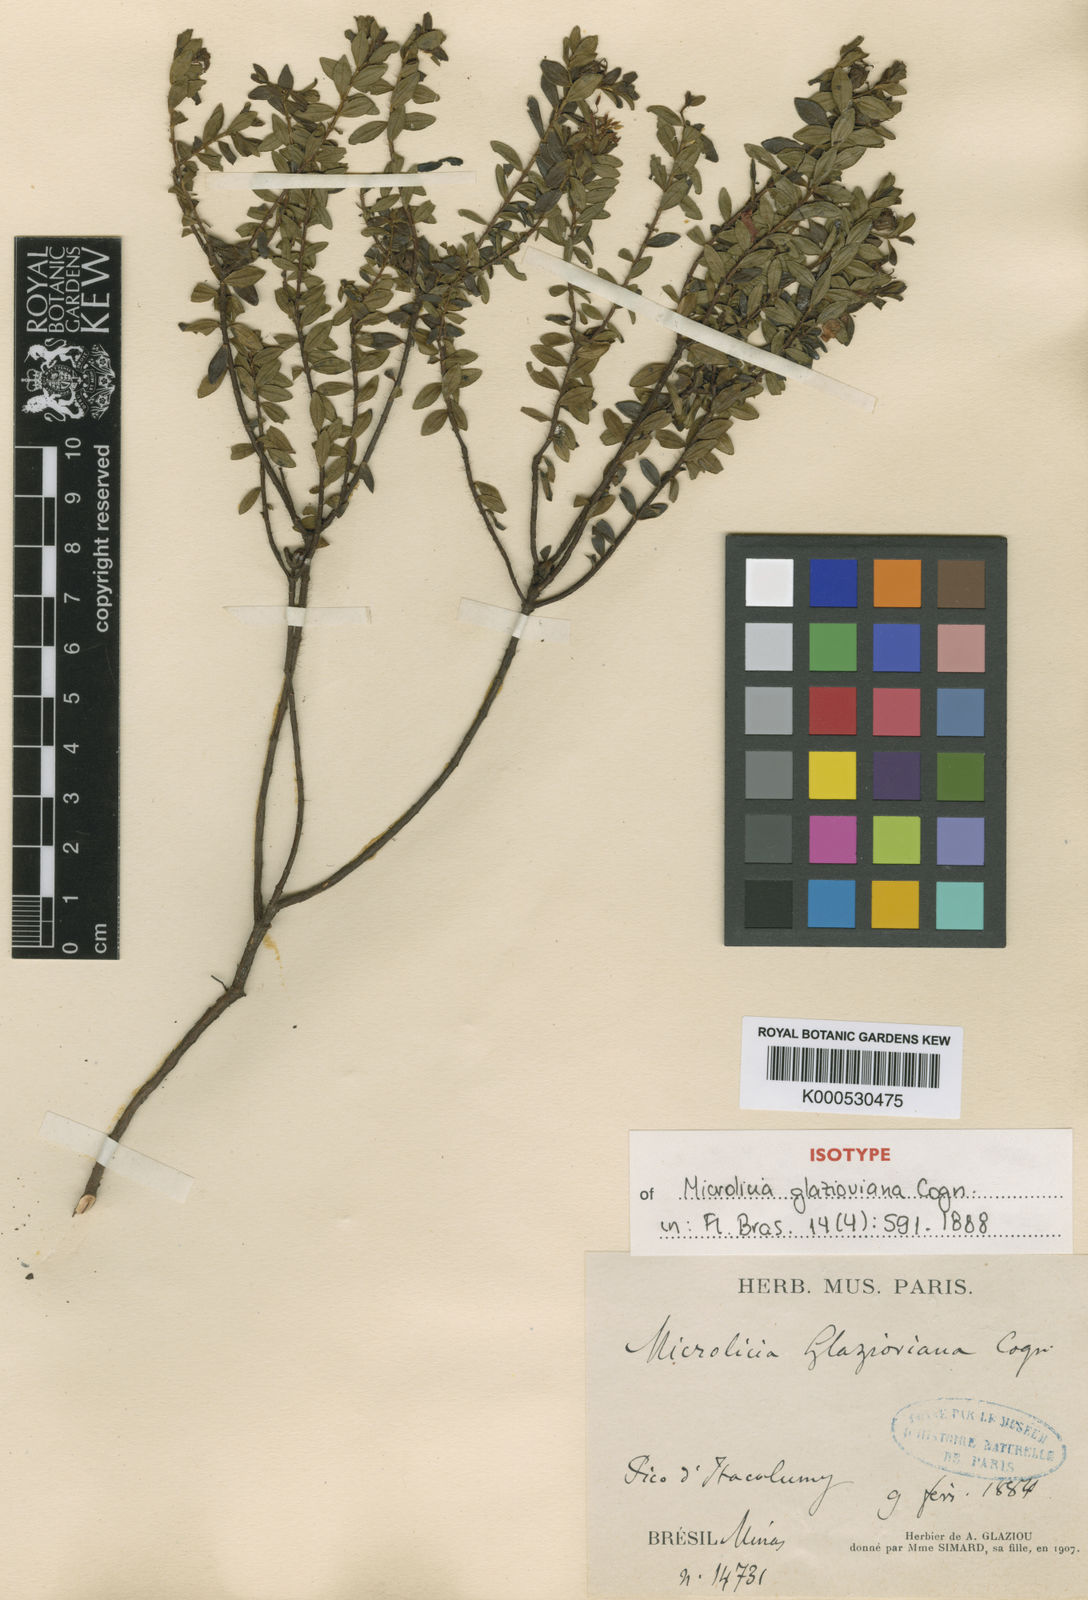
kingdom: Plantae
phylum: Tracheophyta
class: Magnoliopsida
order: Myrtales
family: Melastomataceae
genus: Microlicia
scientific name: Microlicia glazioviana
